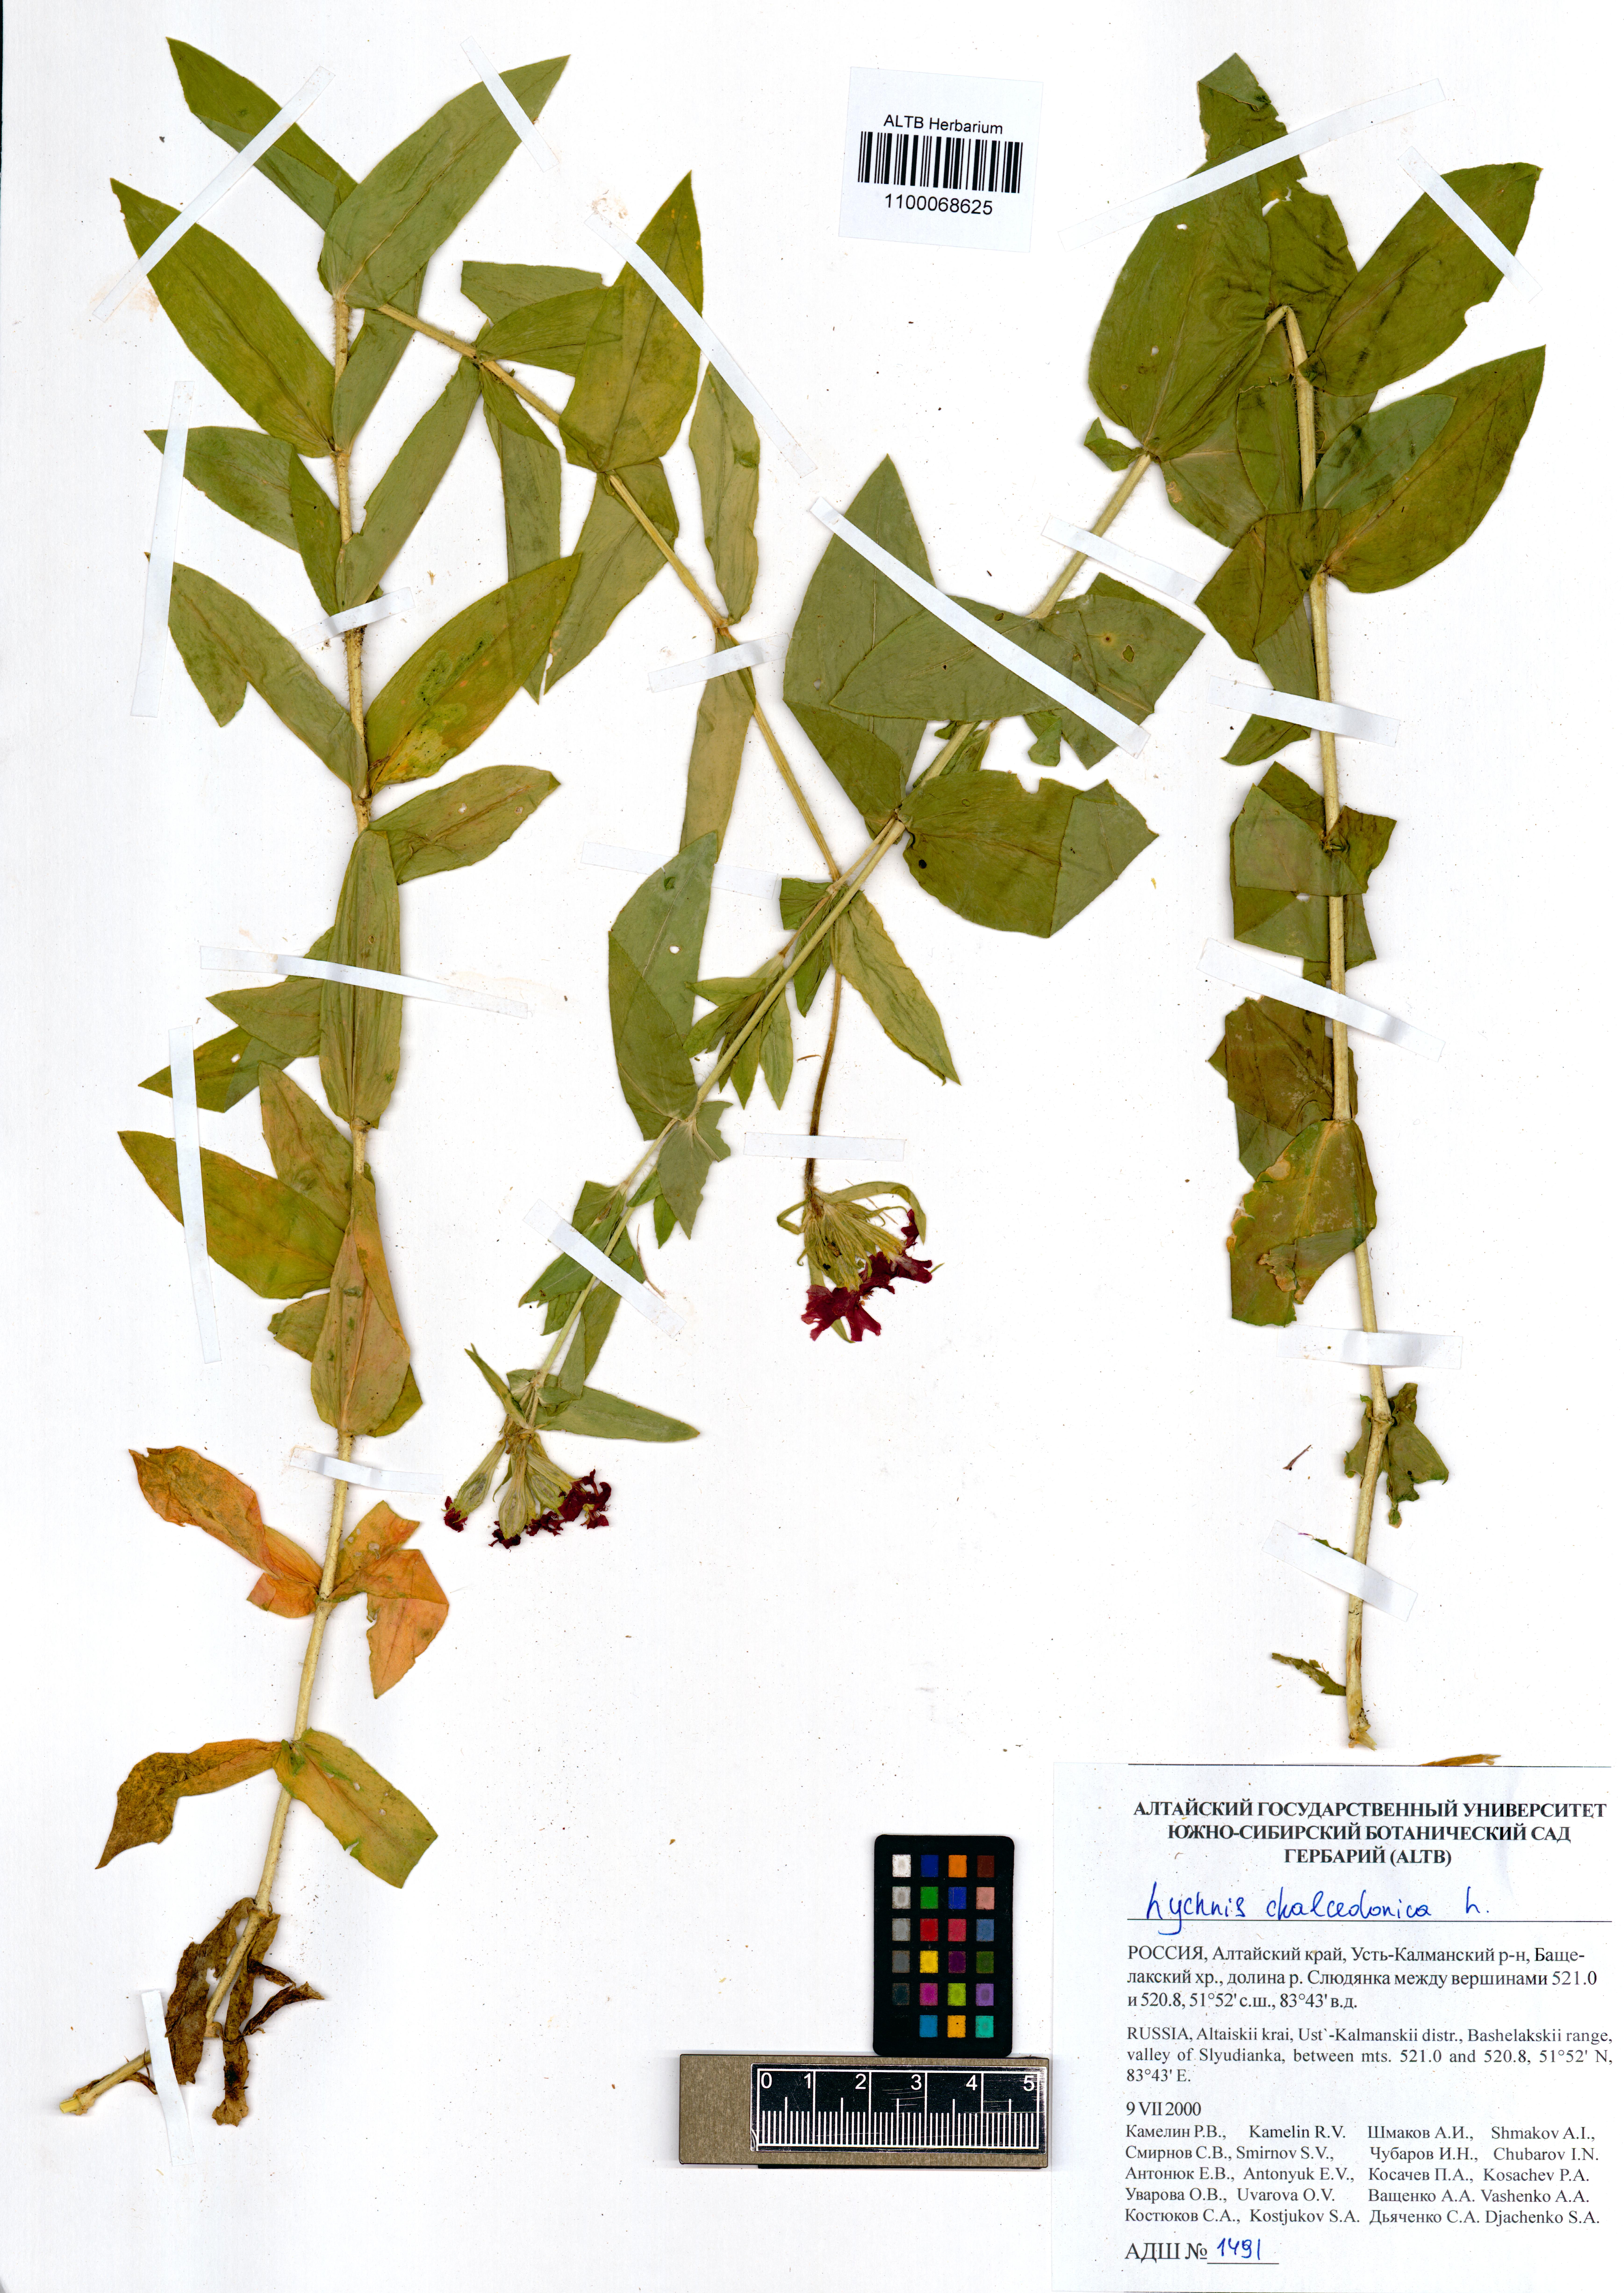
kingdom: Plantae
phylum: Tracheophyta
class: Magnoliopsida
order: Caryophyllales
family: Caryophyllaceae
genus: Silene
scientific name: Silene chalcedonica
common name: Maltese-cross
